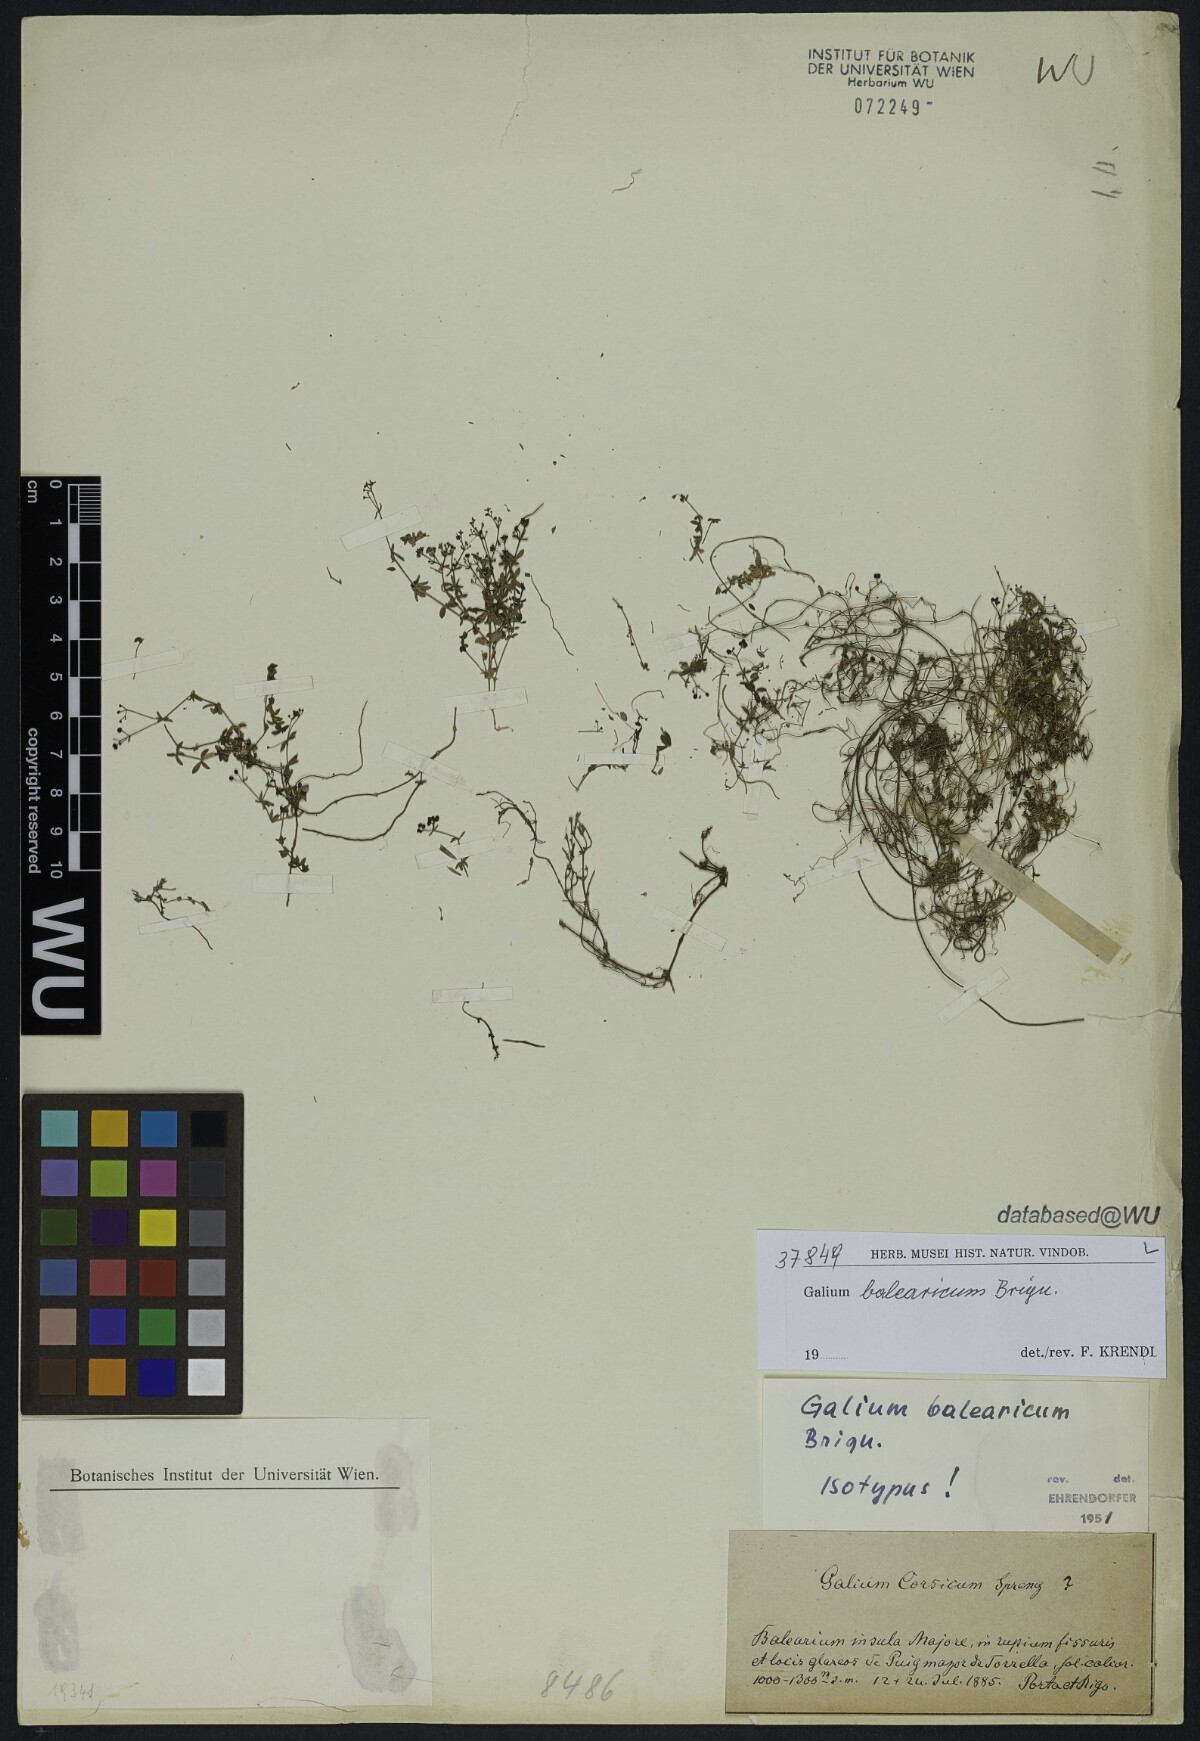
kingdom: Plantae
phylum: Tracheophyta
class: Magnoliopsida
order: Gentianales
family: Rubiaceae
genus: Galium
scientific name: Galium balearicum
